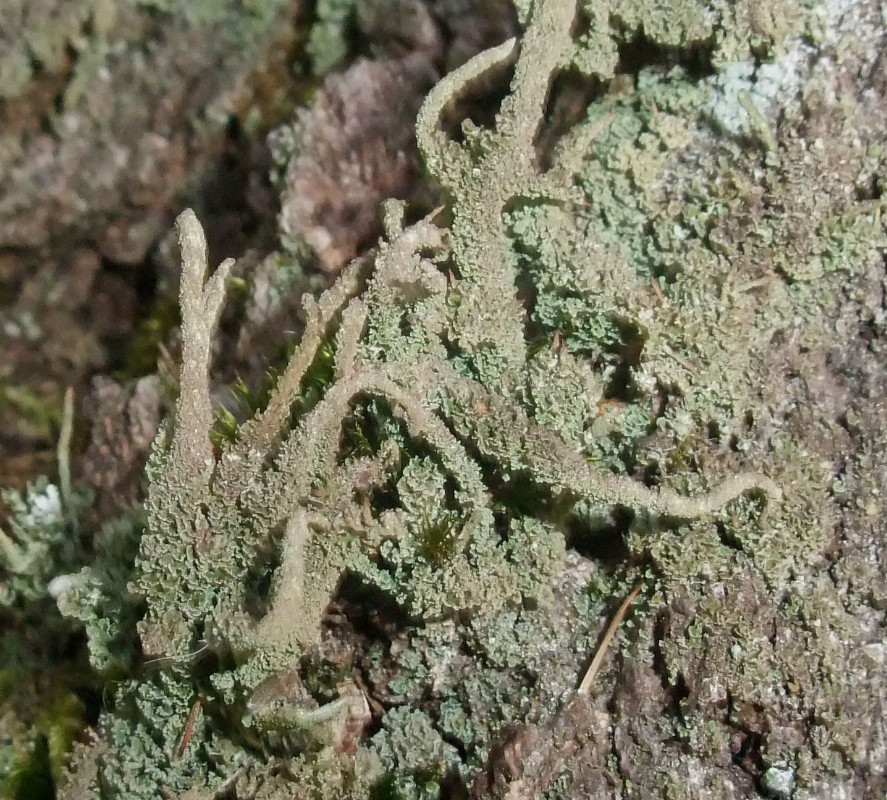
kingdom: Fungi
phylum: Ascomycota
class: Lecanoromycetes
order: Lecanorales
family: Cladoniaceae
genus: Cladonia
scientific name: Cladonia glauca
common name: grågrøn bægerlav
